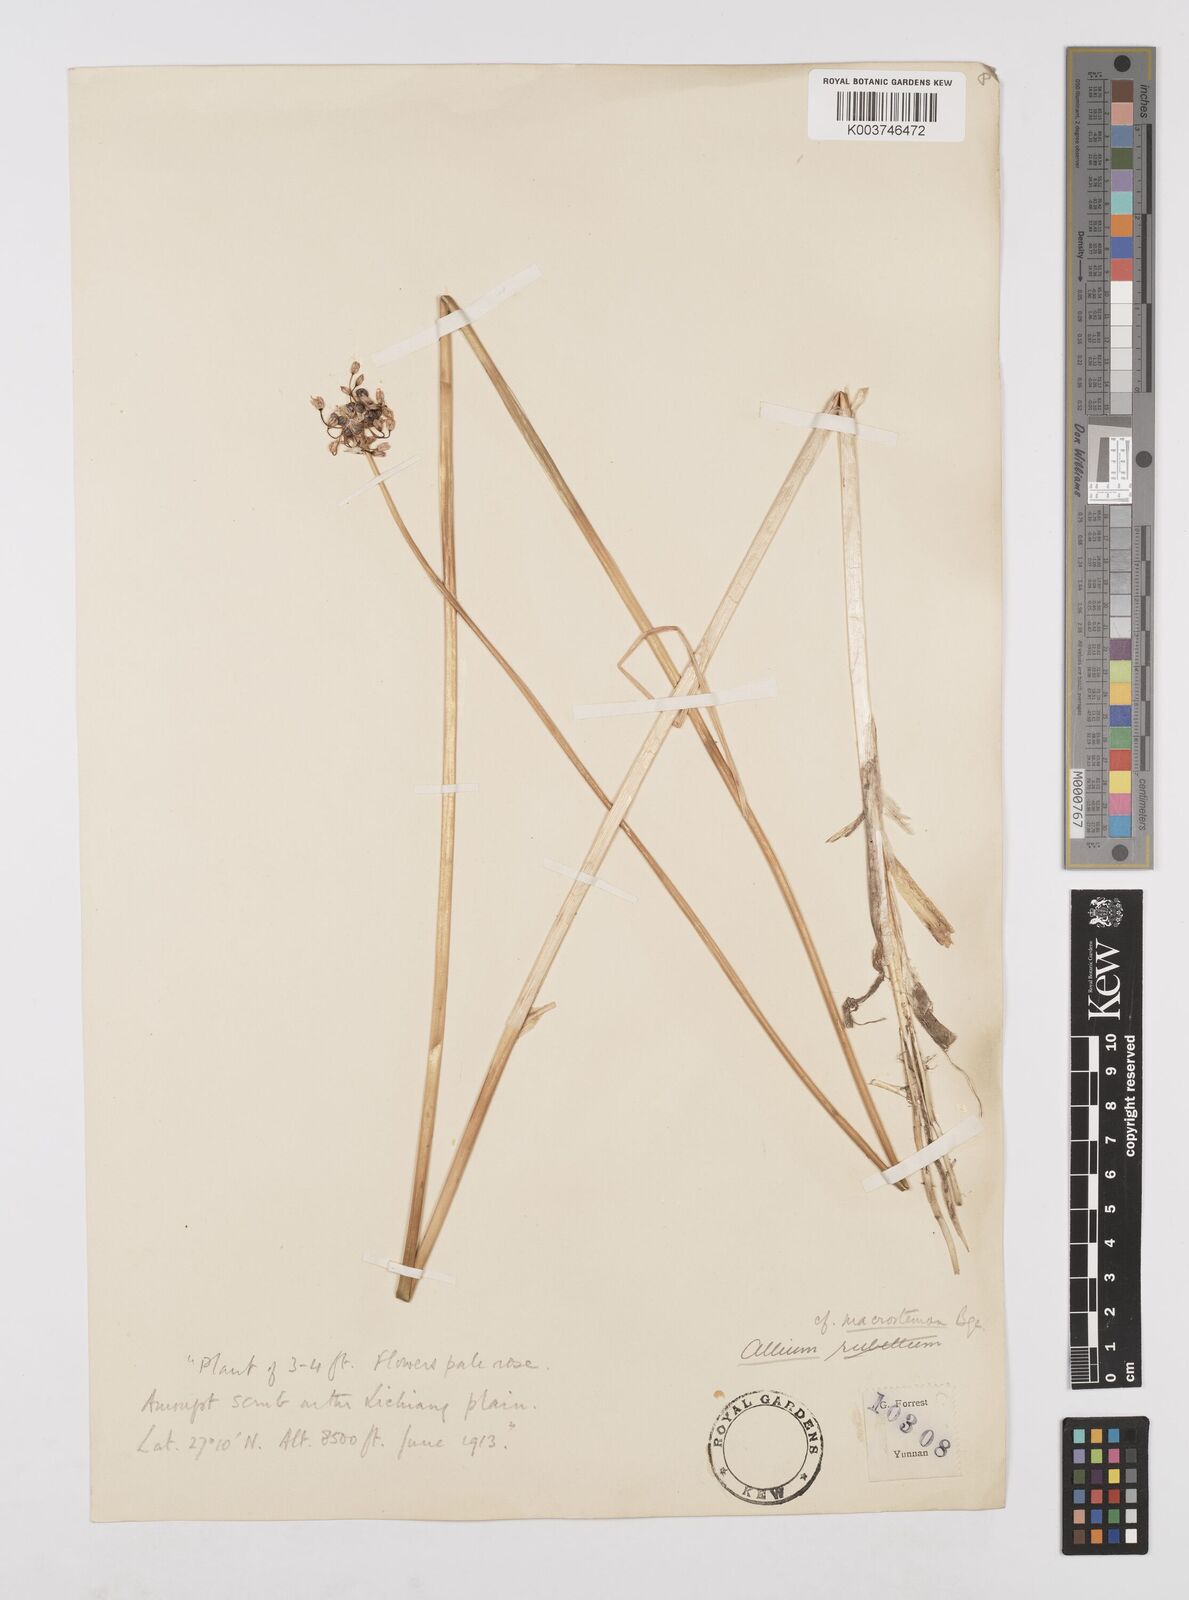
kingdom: Plantae
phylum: Tracheophyta
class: Liliopsida
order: Asparagales
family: Amaryllidaceae
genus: Allium
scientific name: Allium macrostemon
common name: Chinese garlic
